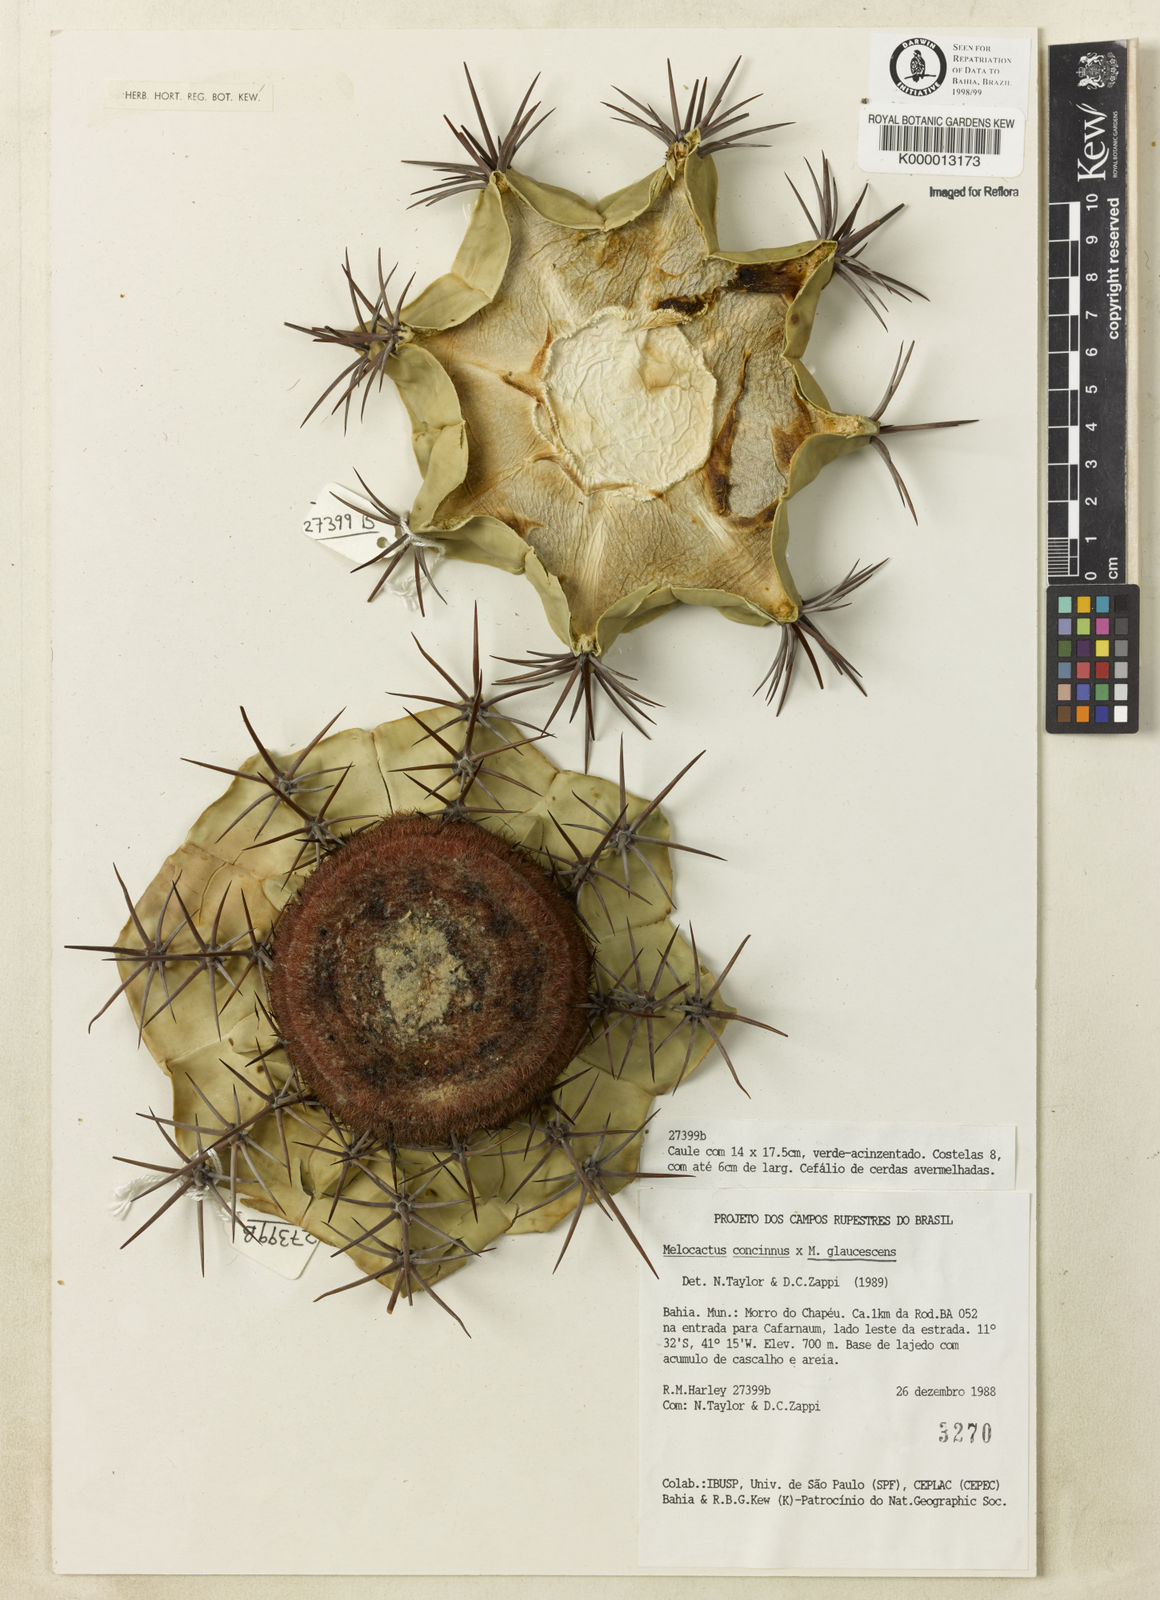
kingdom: Plantae
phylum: Tracheophyta
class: Magnoliopsida
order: Caryophyllales
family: Cactaceae
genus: Melocactus
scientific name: Melocactus pruinosus
